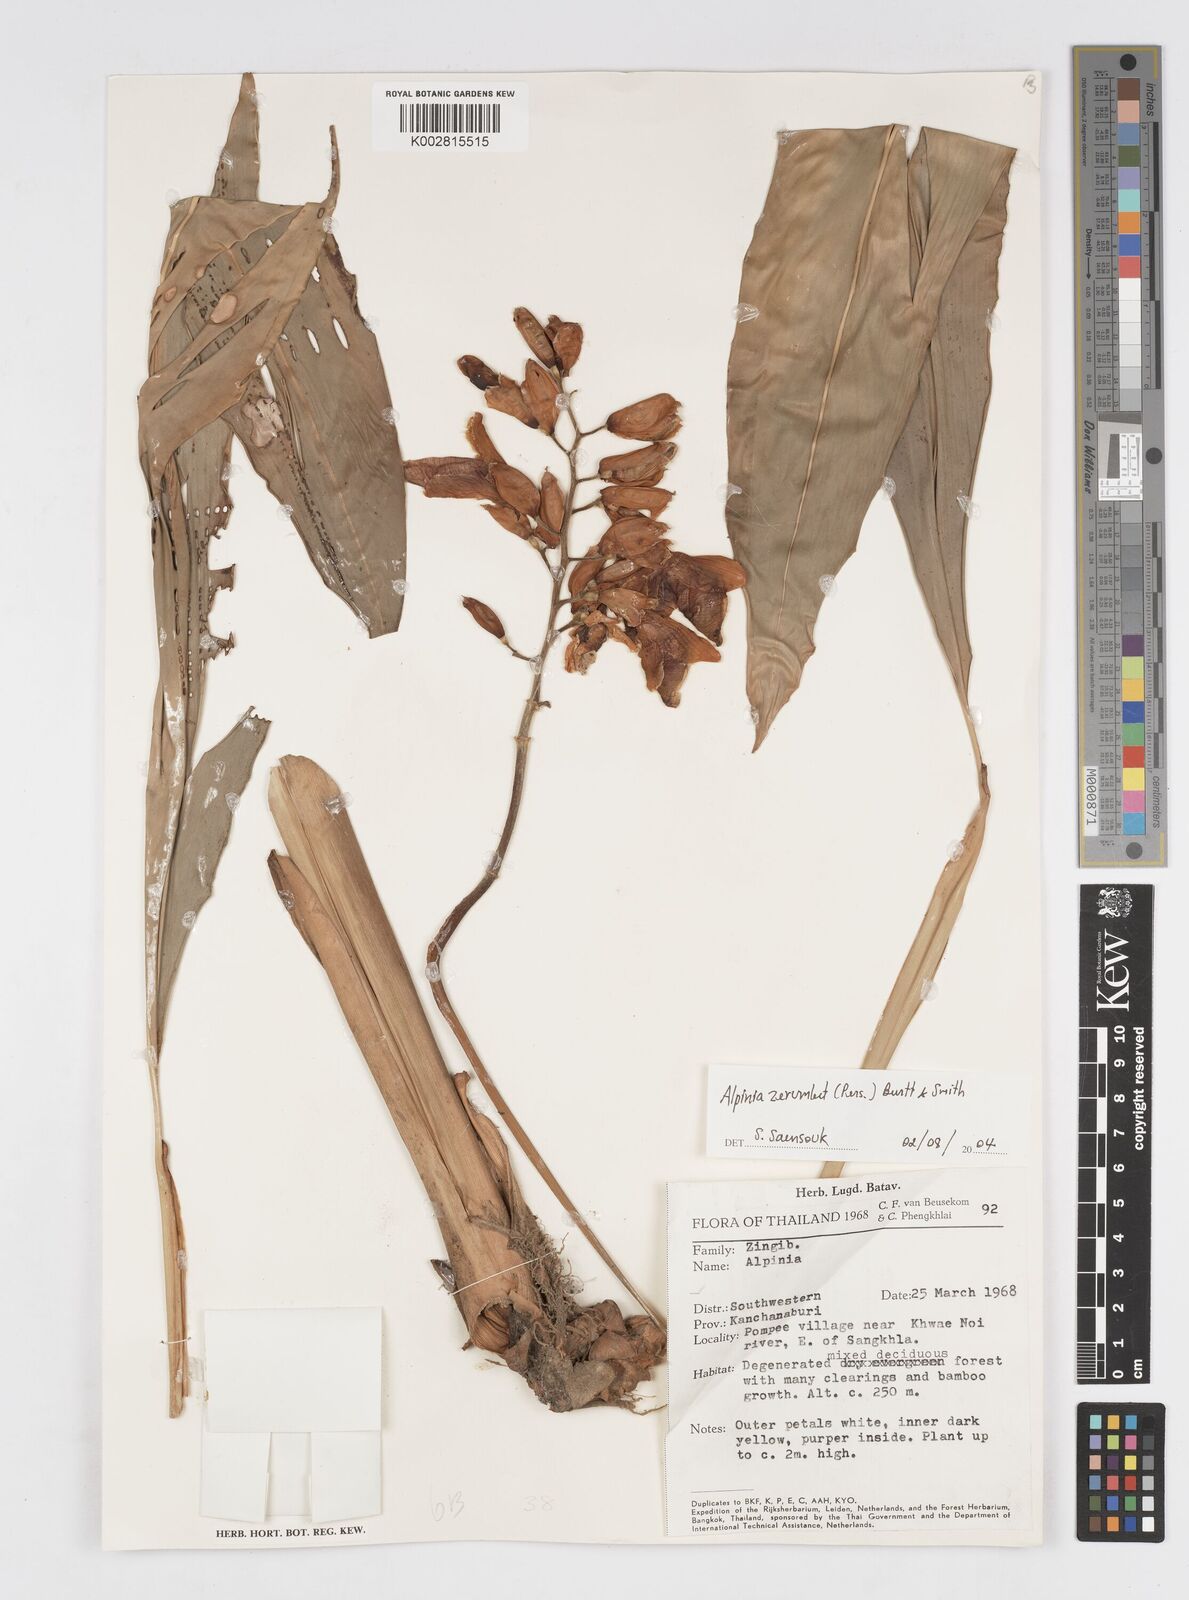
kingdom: Plantae
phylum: Tracheophyta
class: Liliopsida
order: Zingiberales
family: Zingiberaceae
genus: Alpinia
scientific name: Alpinia zerumbet
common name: Shellplant
